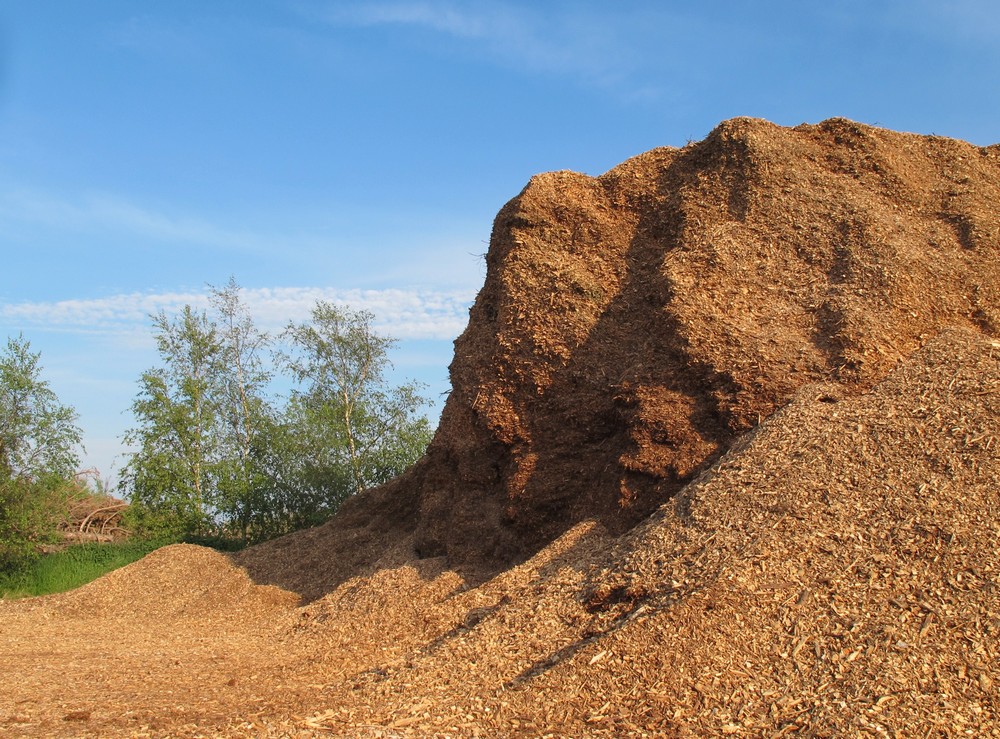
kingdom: Fungi
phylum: Basidiomycota
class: Agaricomycetes
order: Agaricales
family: Strophariaceae
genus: Agrocybe
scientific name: Agrocybe praecox
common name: tidlig agerhat
